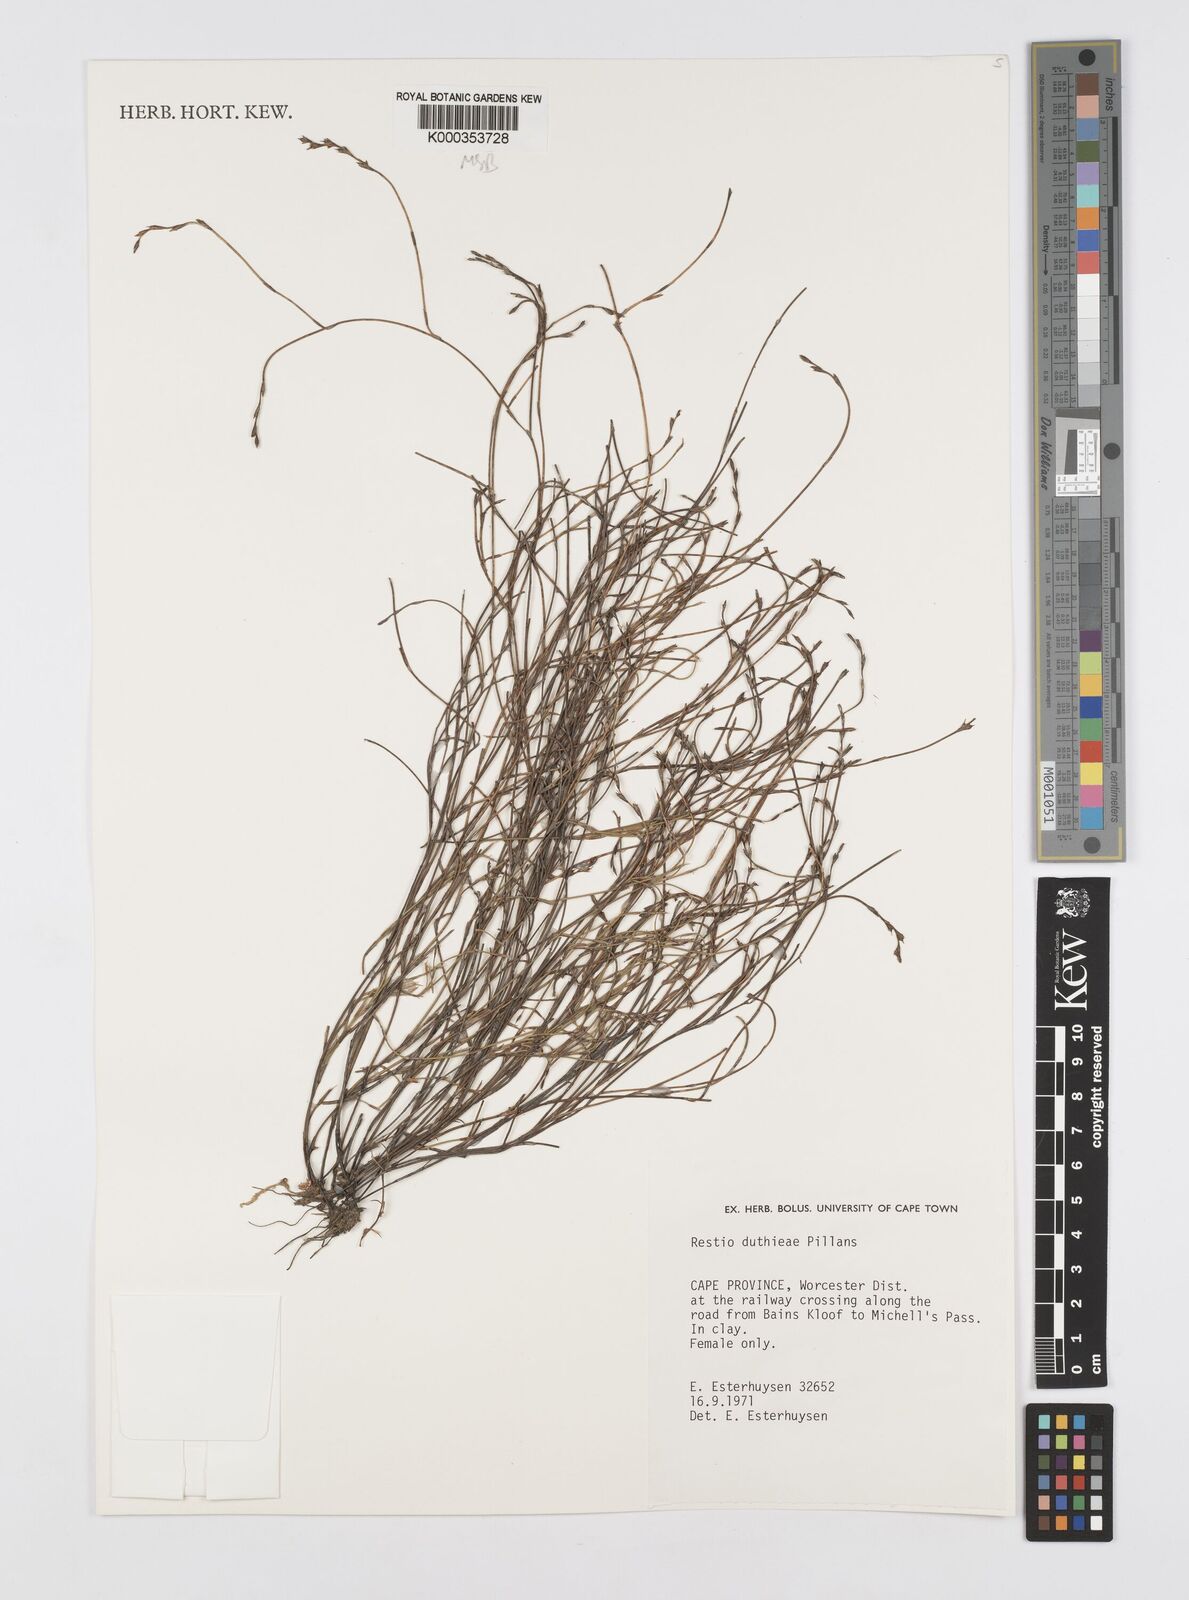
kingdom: Plantae
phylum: Tracheophyta
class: Liliopsida
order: Poales
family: Restionaceae
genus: Restio
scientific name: Restio duthieae
